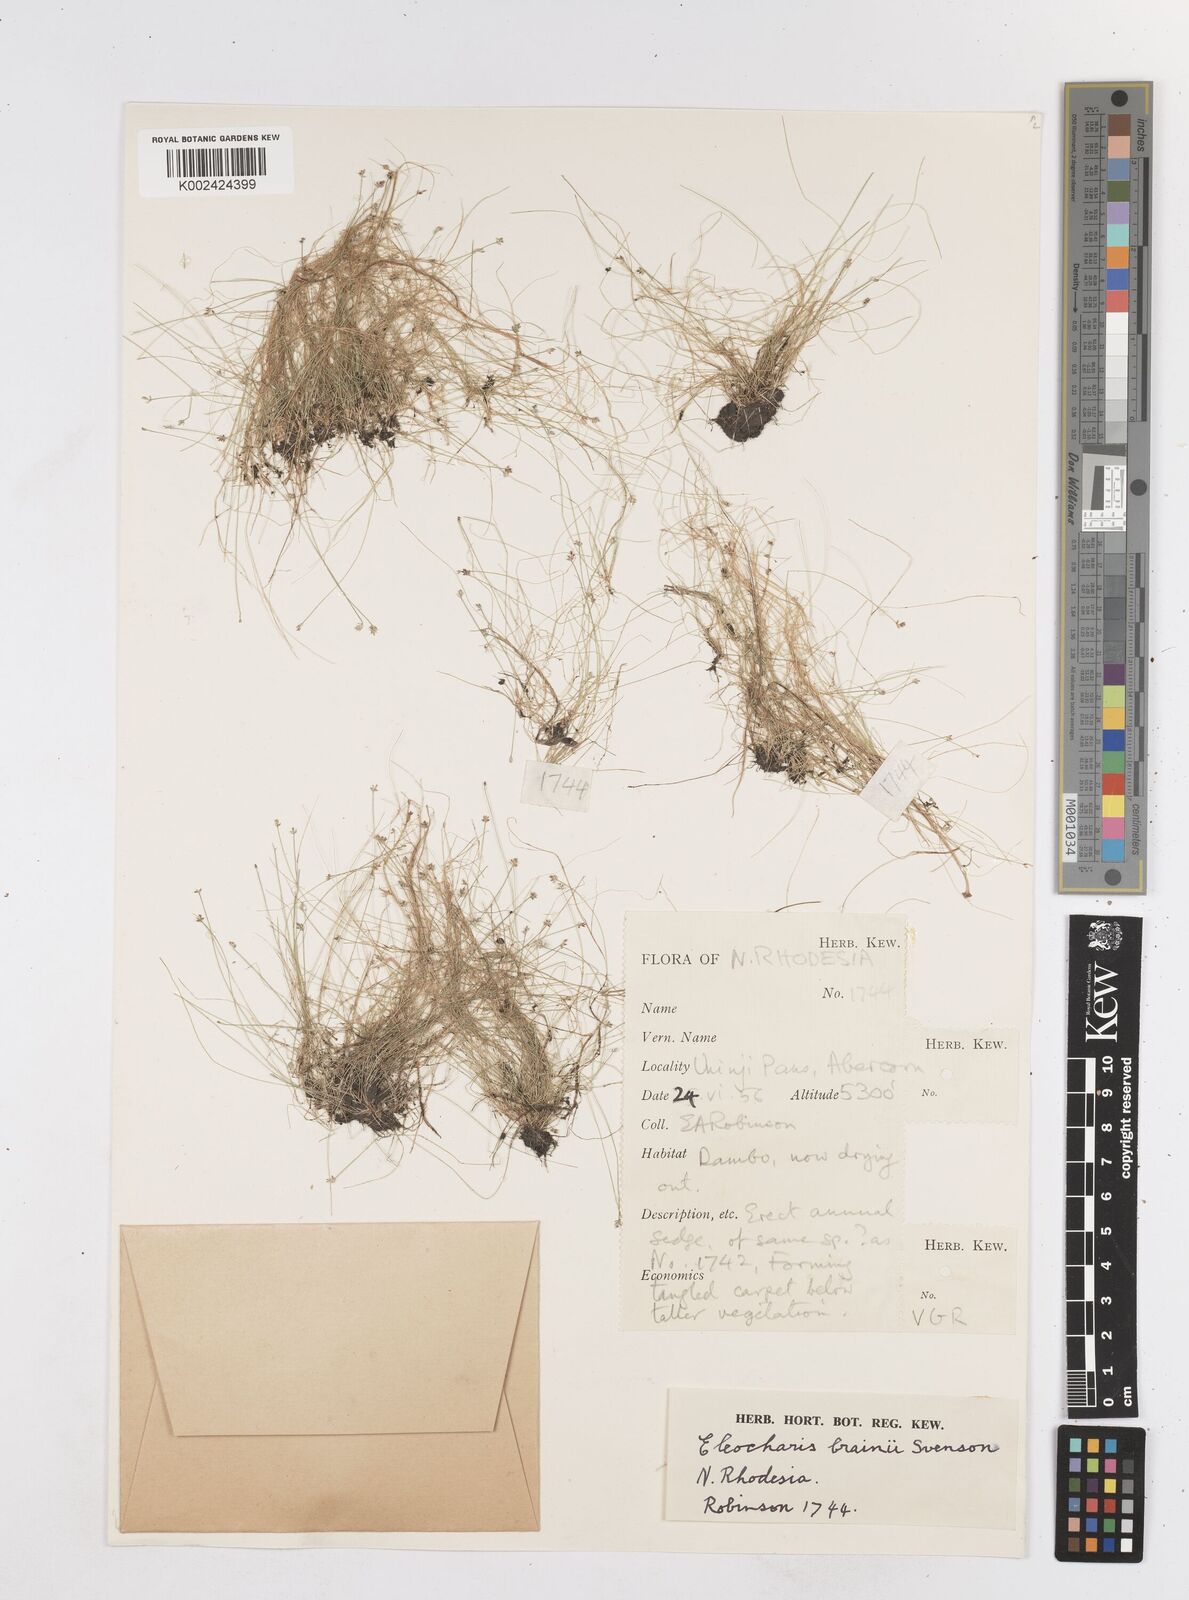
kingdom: Plantae
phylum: Tracheophyta
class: Liliopsida
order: Poales
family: Cyperaceae
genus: Eleocharis
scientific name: Eleocharis brainii
